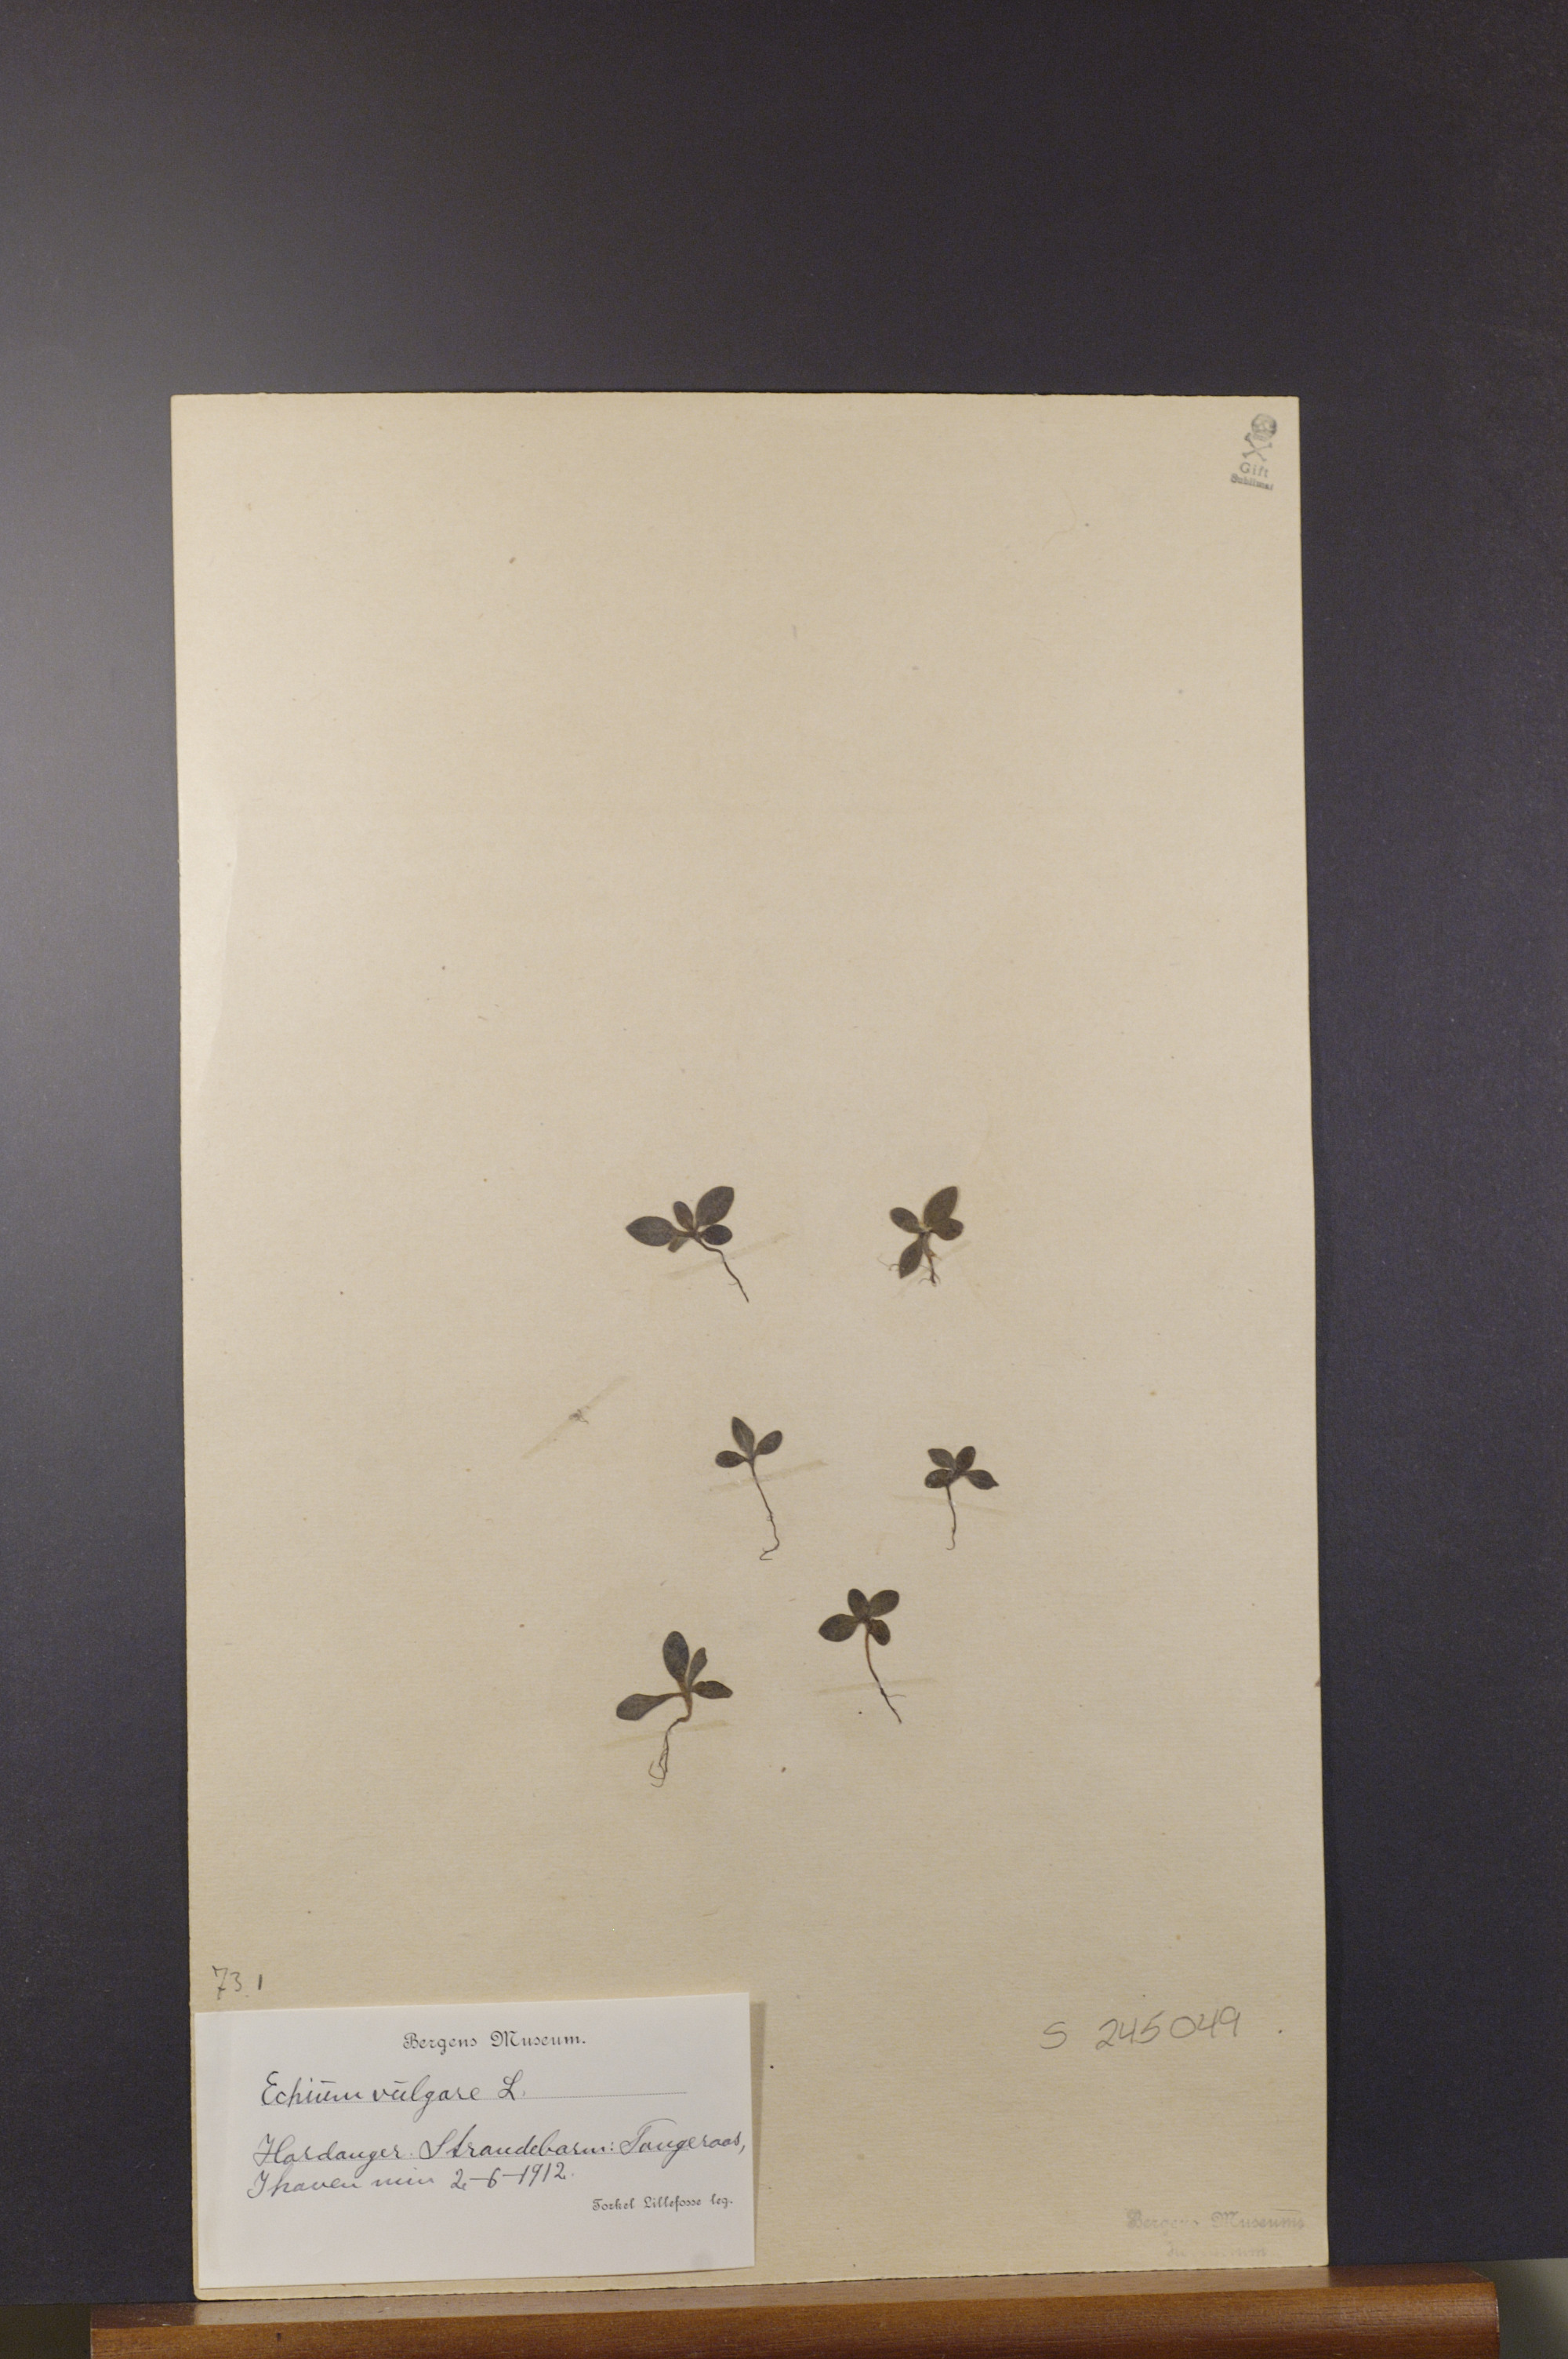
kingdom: Plantae
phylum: Tracheophyta
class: Magnoliopsida
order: Boraginales
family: Boraginaceae
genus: Echium
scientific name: Echium vulgare
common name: Common viper's bugloss
